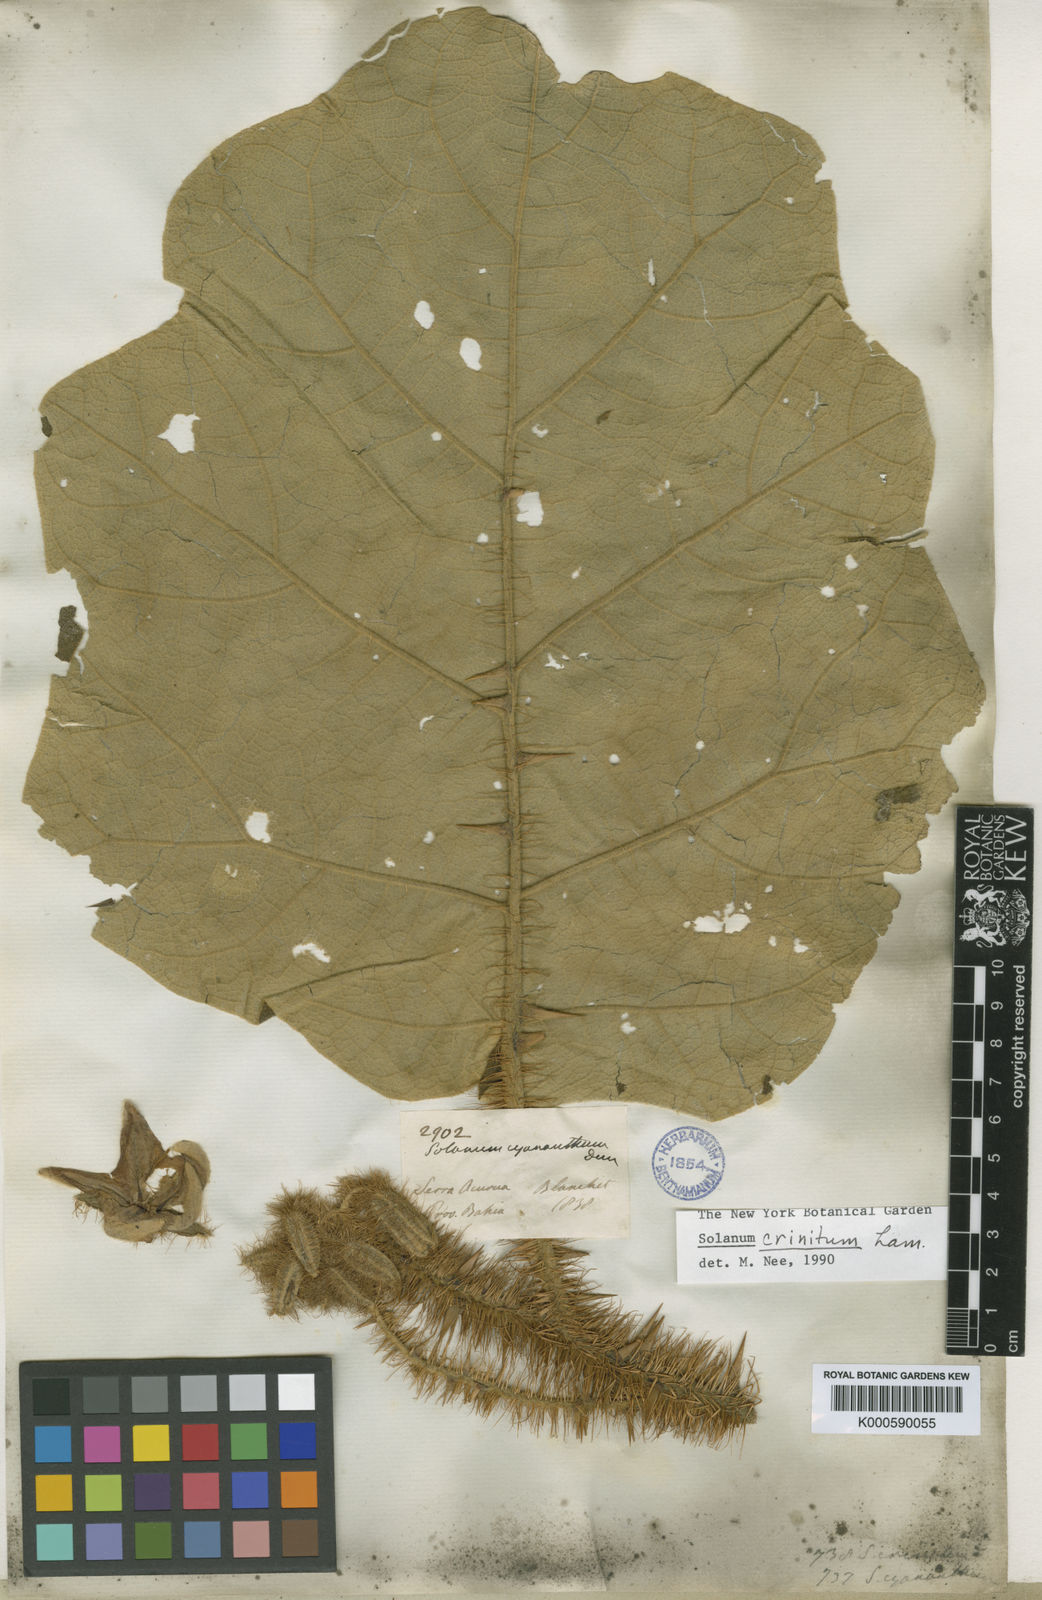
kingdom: Plantae
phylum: Tracheophyta
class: Magnoliopsida
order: Solanales
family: Solanaceae
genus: Solanum
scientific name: Solanum crinitum
